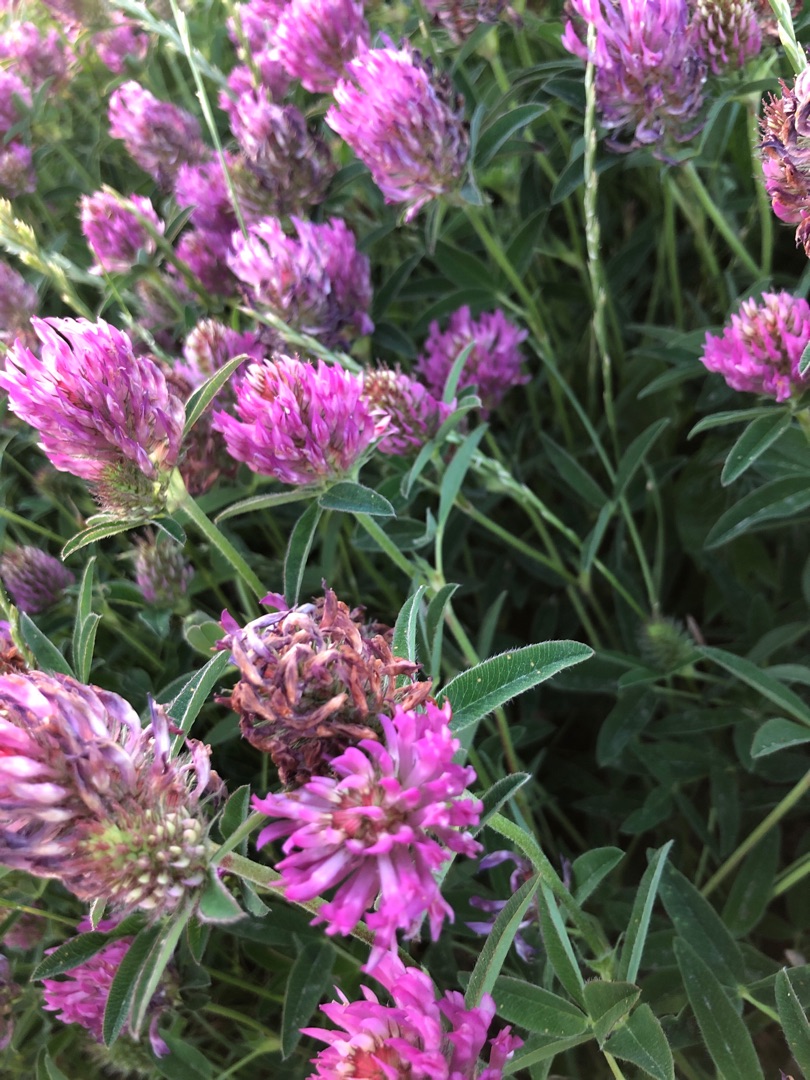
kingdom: Plantae
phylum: Tracheophyta
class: Magnoliopsida
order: Fabales
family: Fabaceae
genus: Trifolium
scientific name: Trifolium medium
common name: Bugtet kløver
